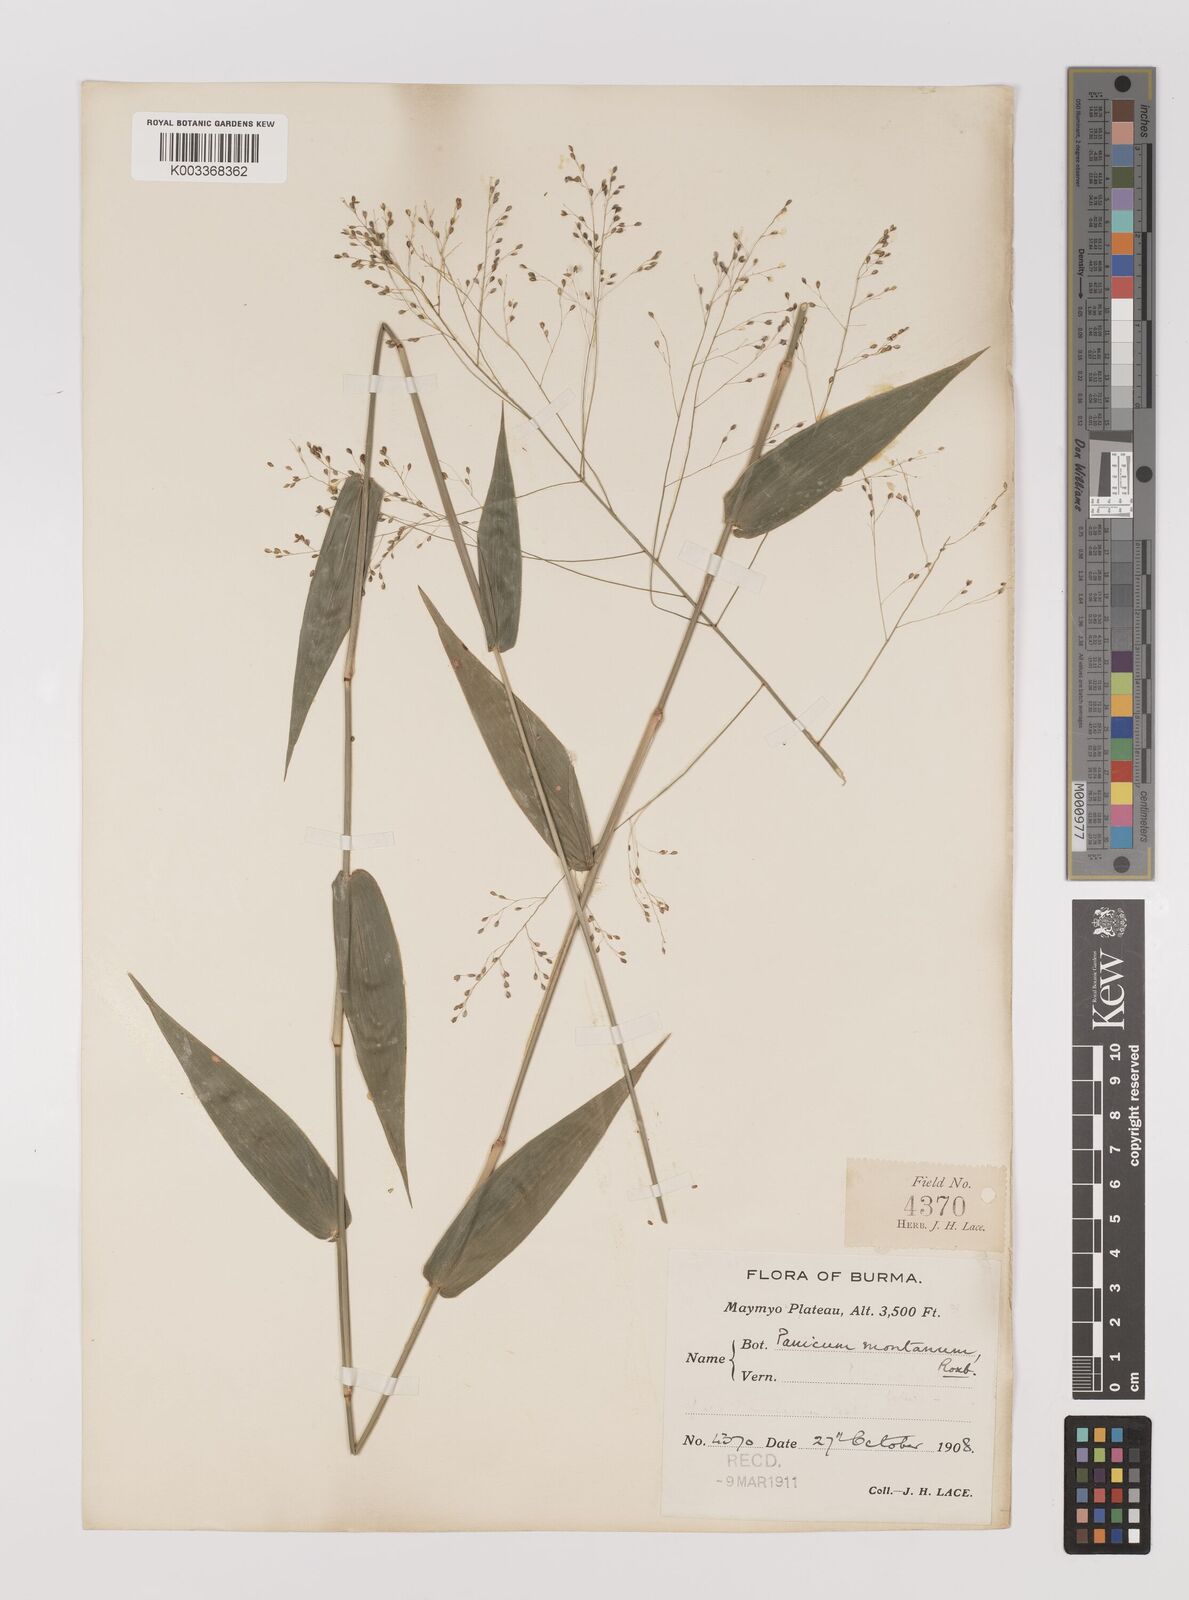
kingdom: Plantae
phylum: Tracheophyta
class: Liliopsida
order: Poales
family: Poaceae
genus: Panicum
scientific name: Panicum notatum
